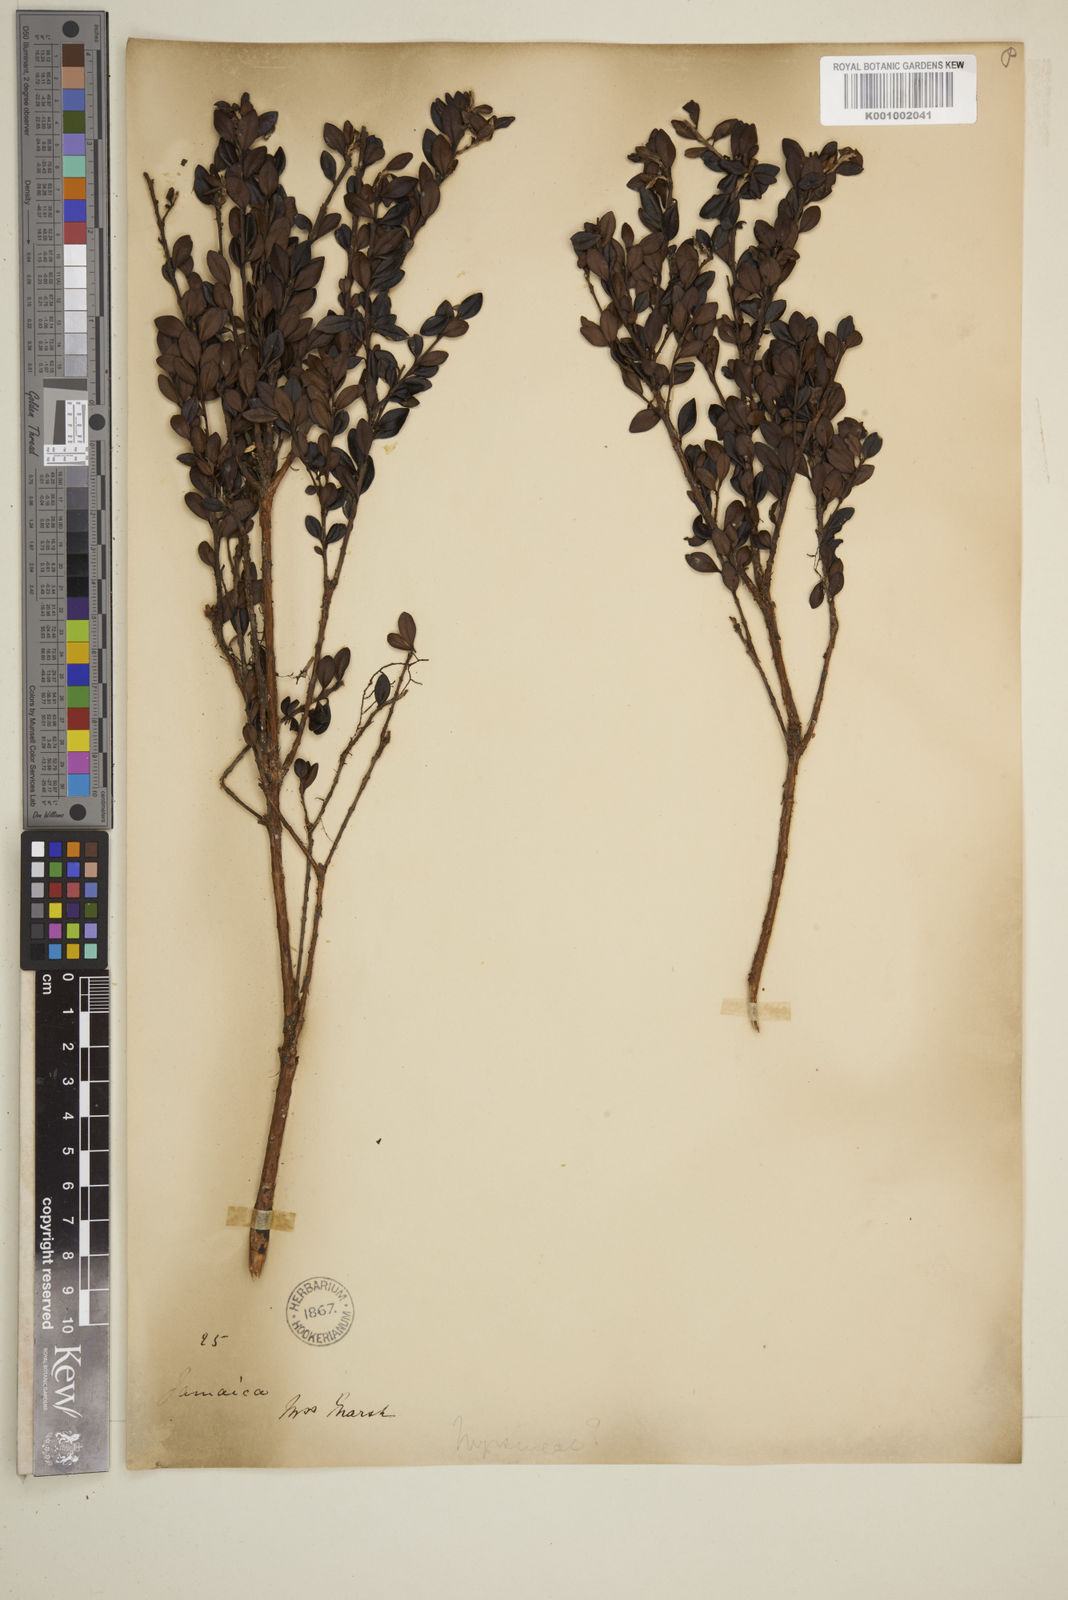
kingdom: Plantae
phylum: Tracheophyta
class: Magnoliopsida
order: Myrtales
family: Myrtaceae
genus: Eugenia
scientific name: Eugenia alpina
